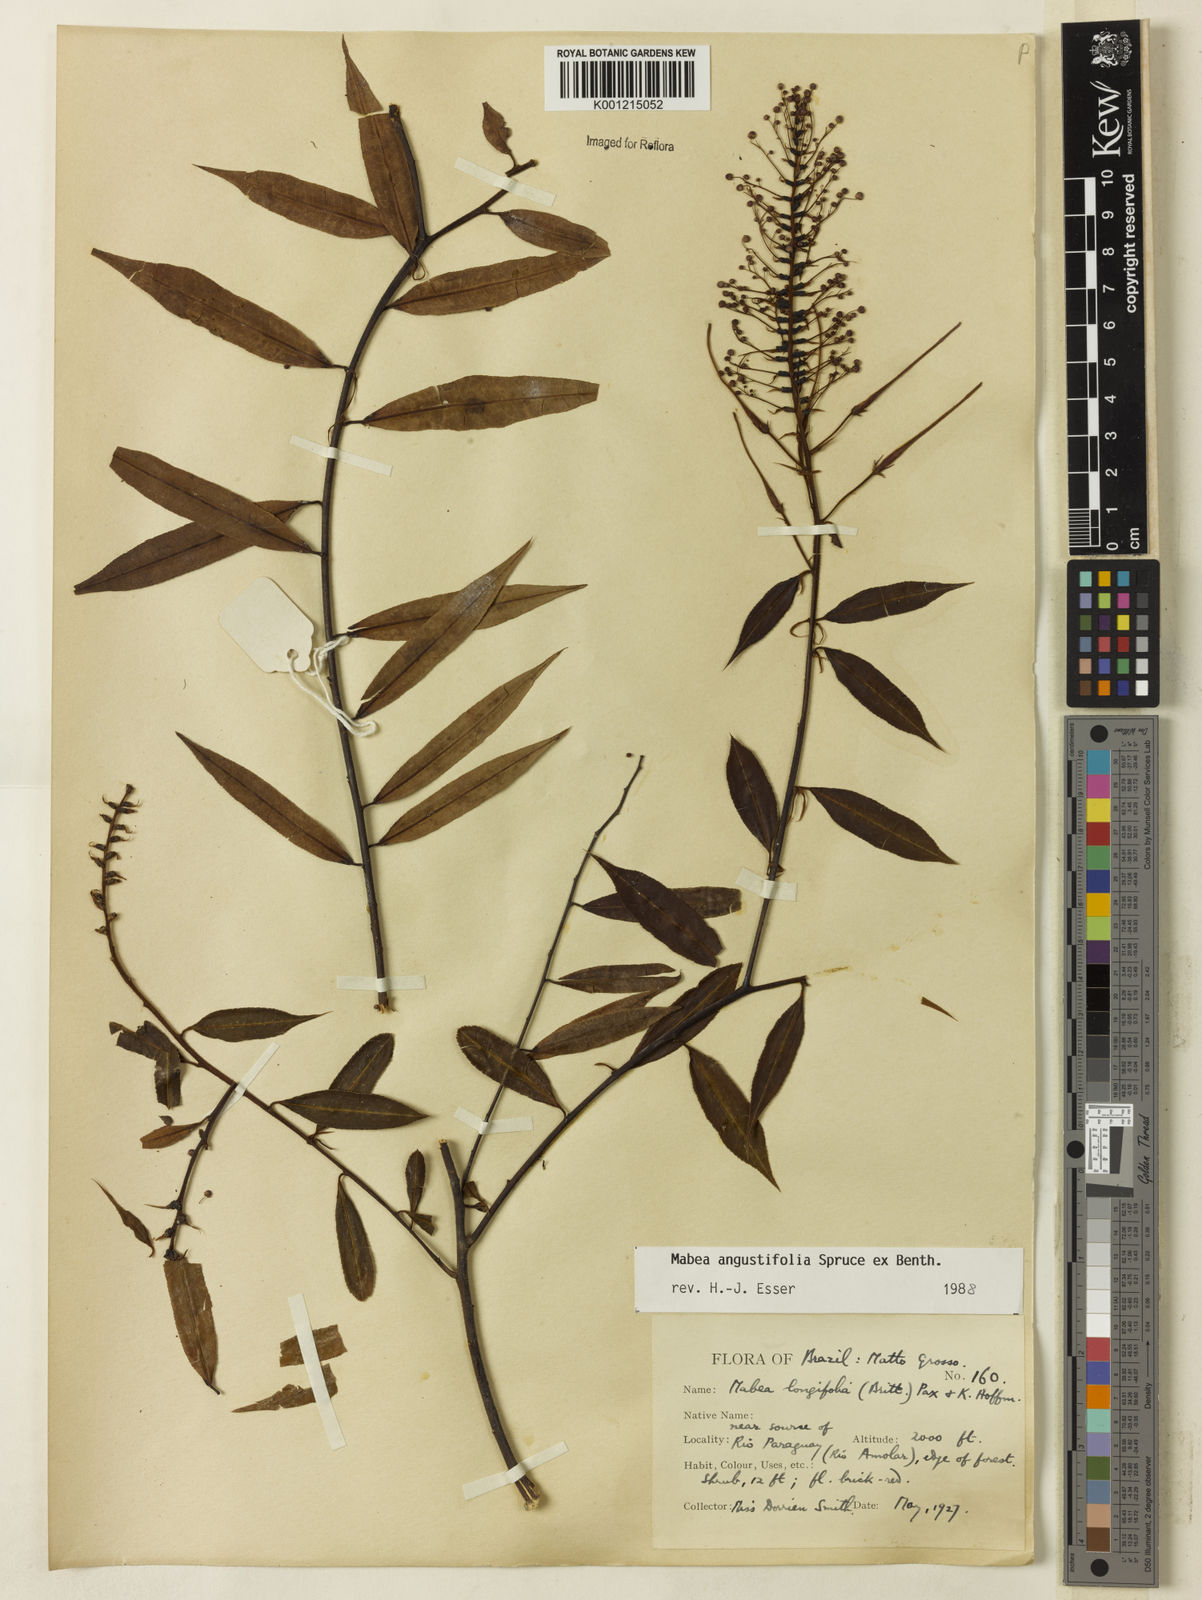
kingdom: Plantae
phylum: Tracheophyta
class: Magnoliopsida
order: Malpighiales
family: Euphorbiaceae
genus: Mabea
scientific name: Mabea angustifolia
